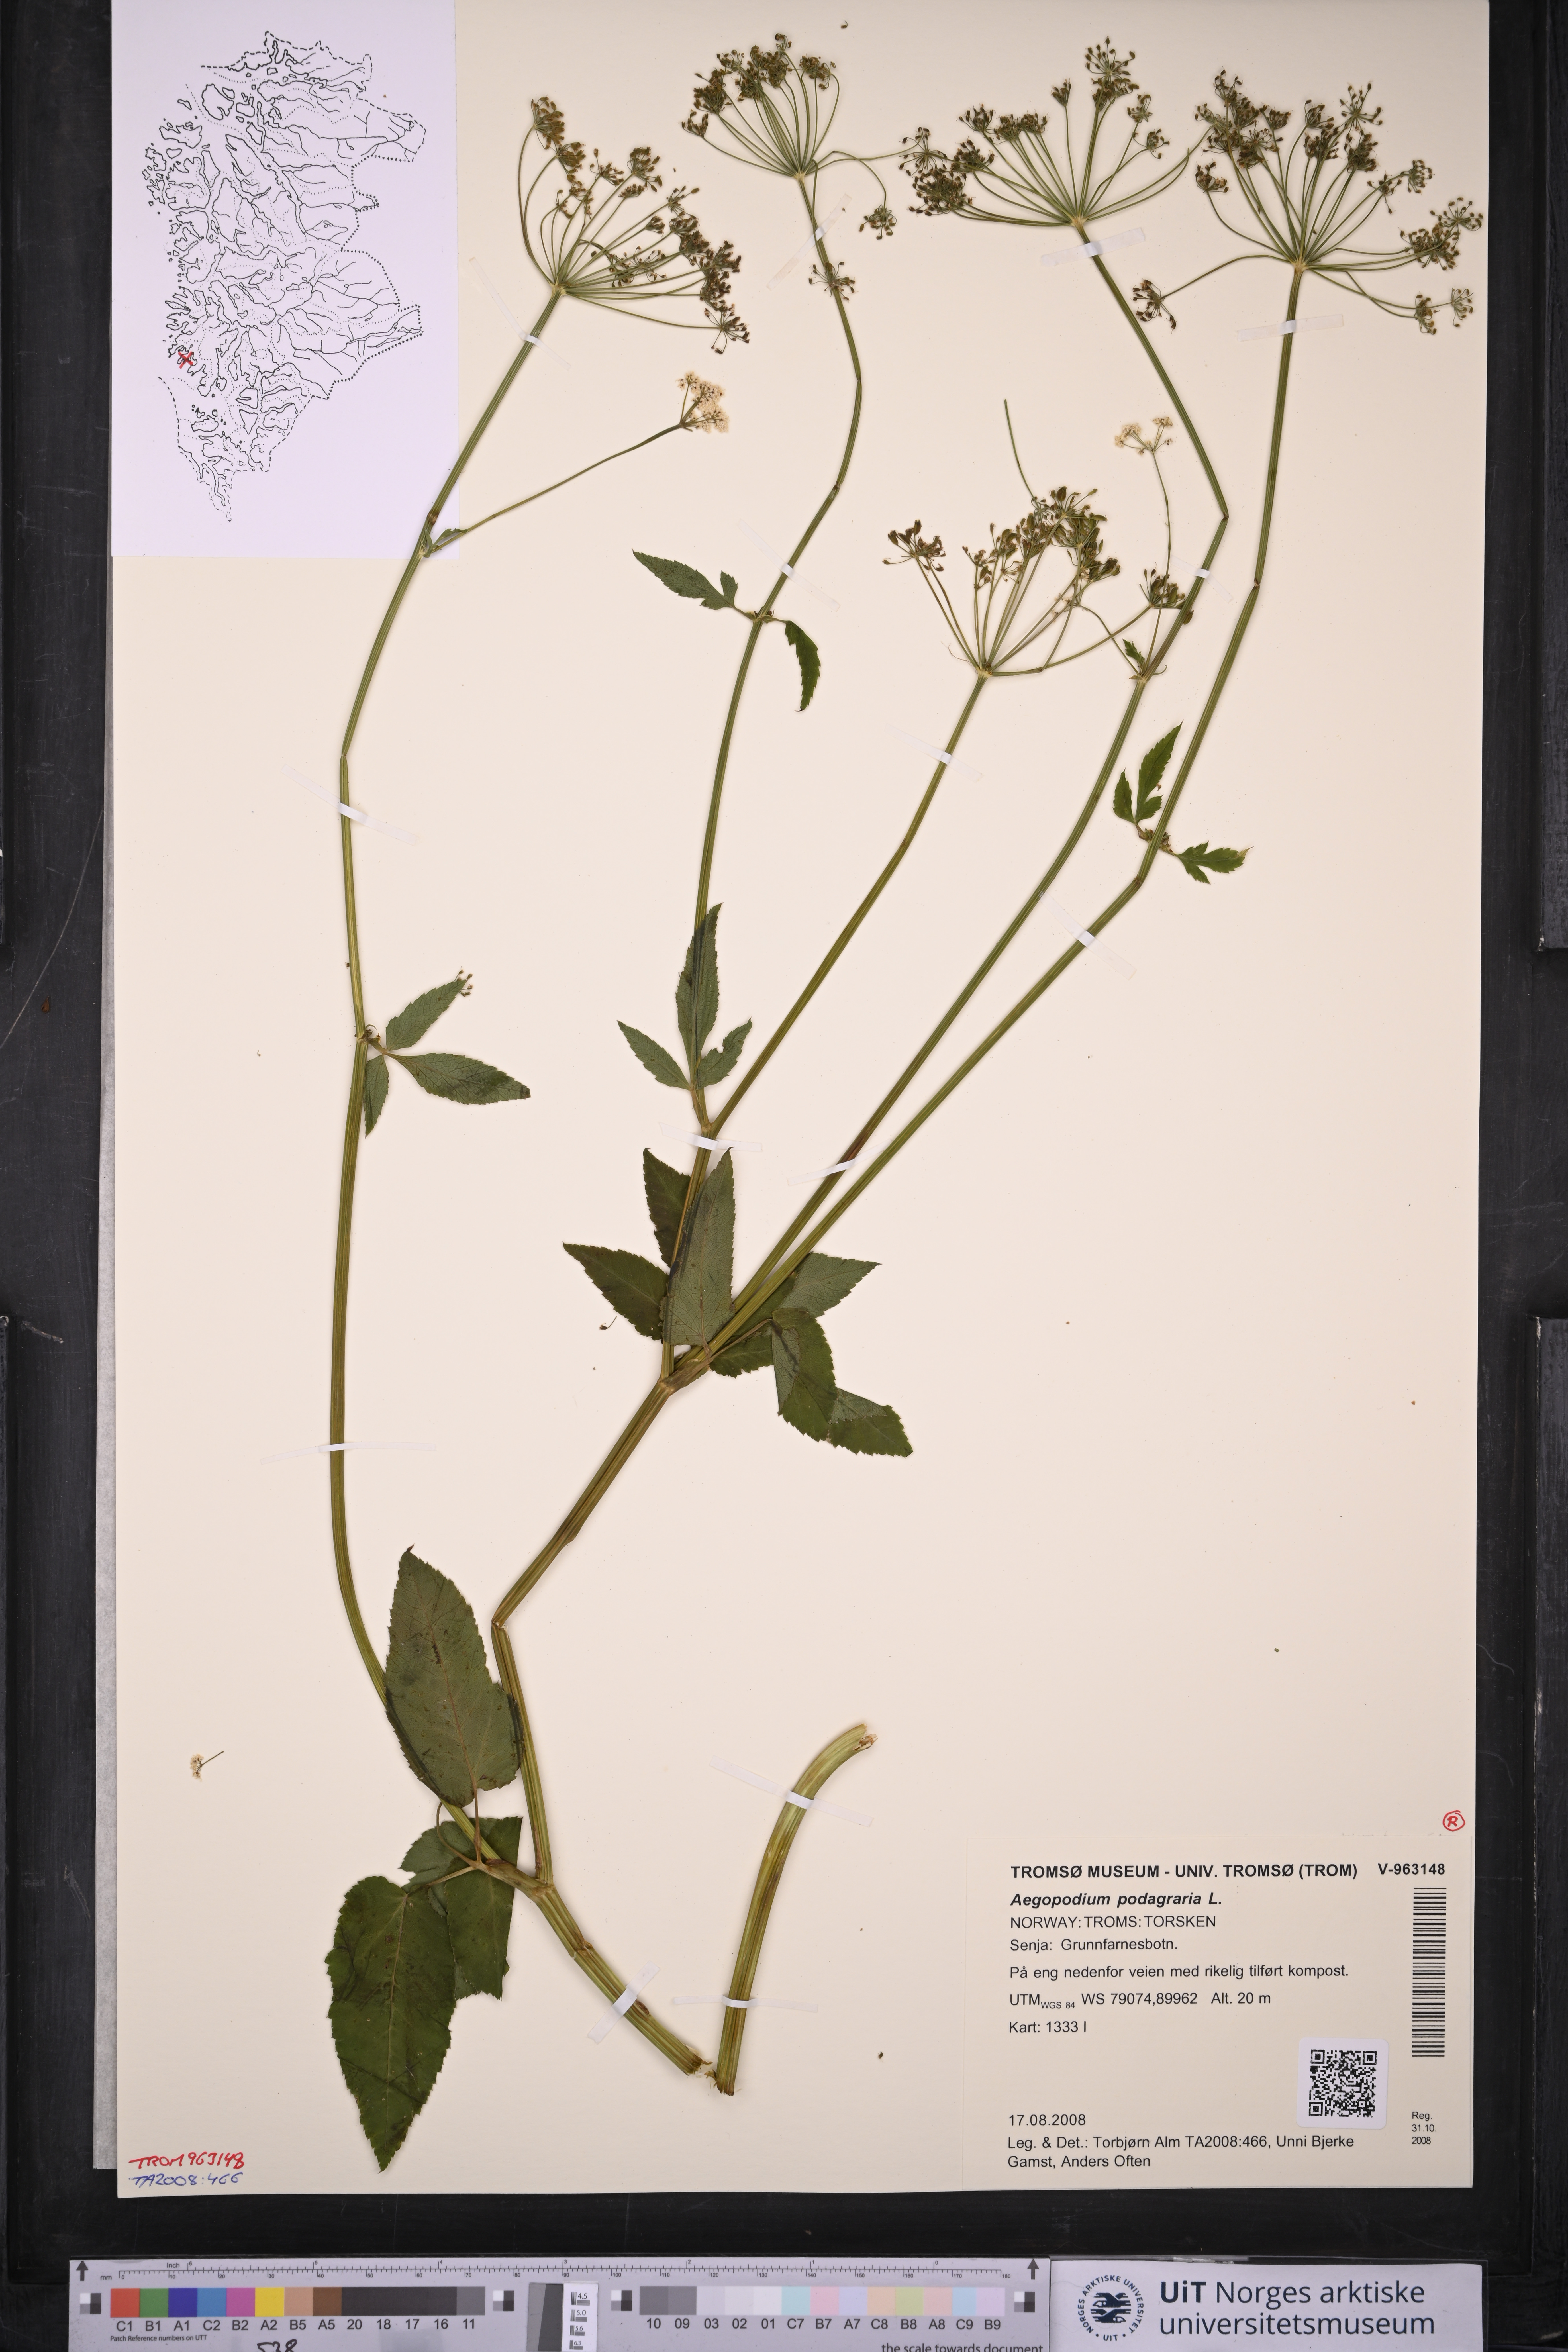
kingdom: Plantae
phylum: Tracheophyta
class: Magnoliopsida
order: Apiales
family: Apiaceae
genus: Aegopodium
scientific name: Aegopodium podagraria
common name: Ground-elder
